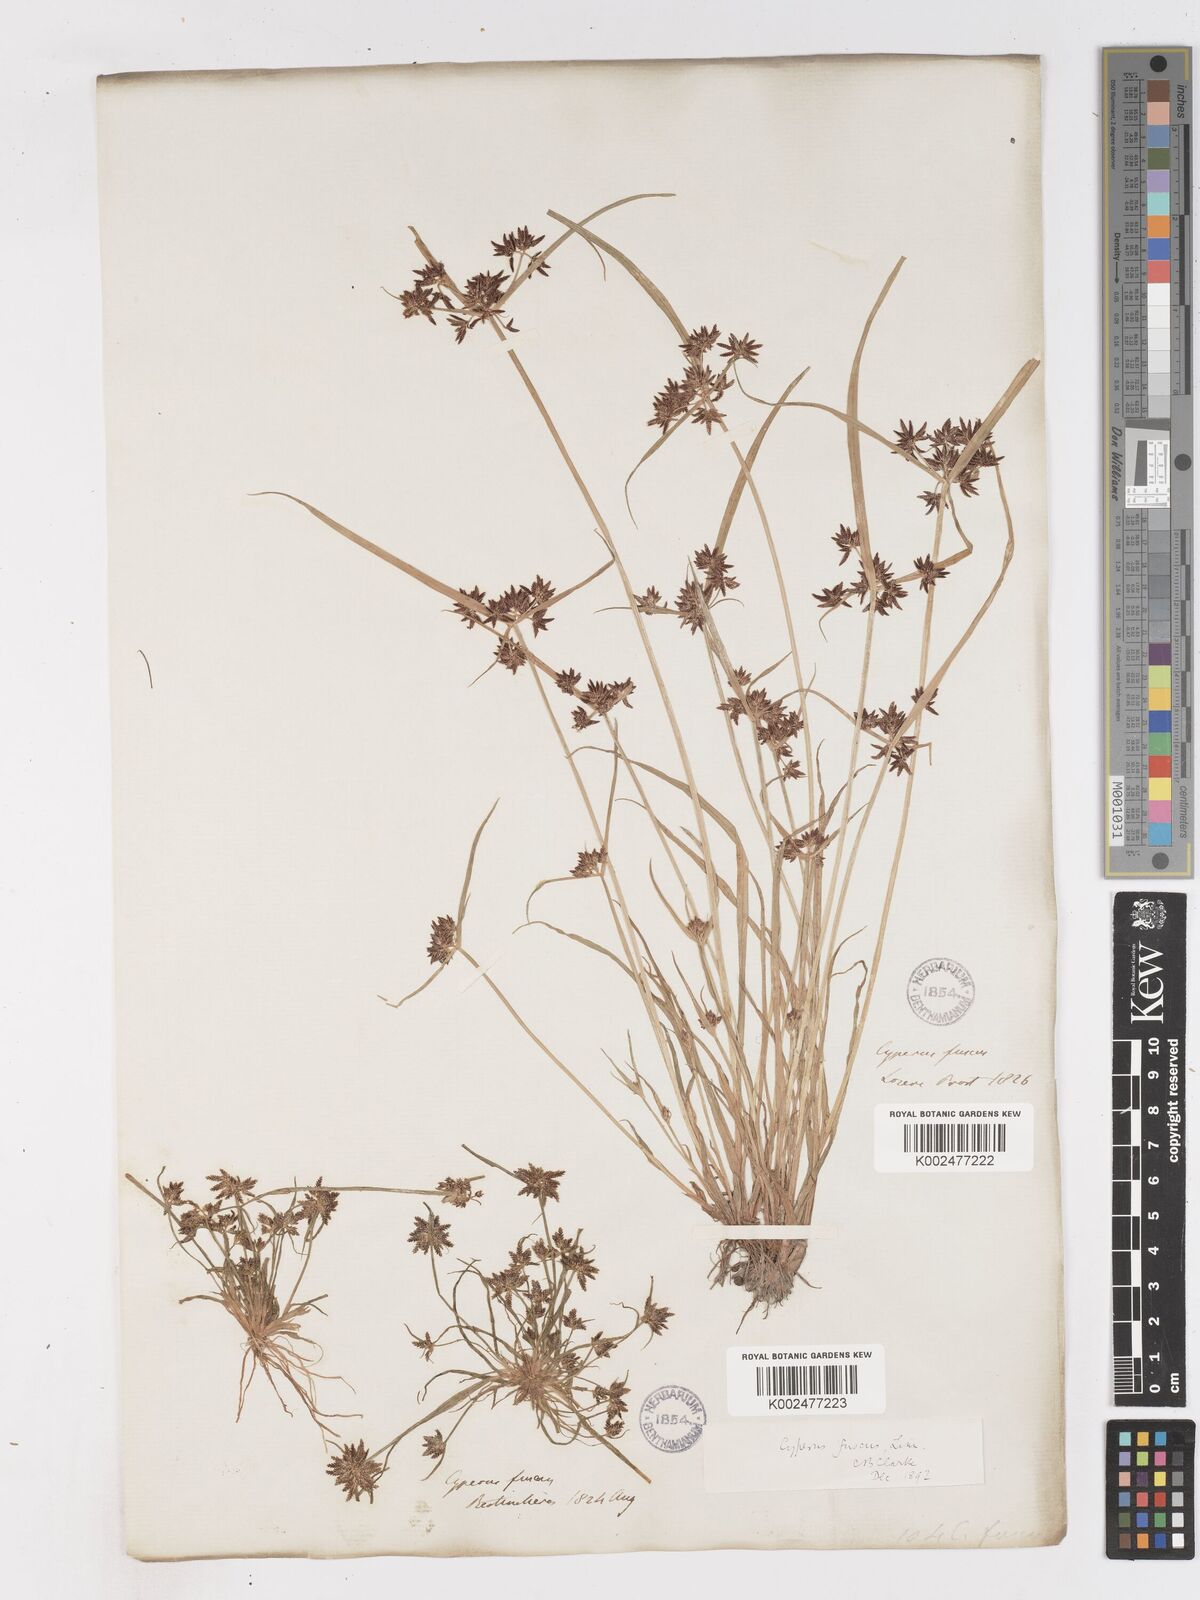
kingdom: Plantae
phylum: Tracheophyta
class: Liliopsida
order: Poales
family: Cyperaceae
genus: Cyperus
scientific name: Cyperus fuscus
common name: Brown galingale
